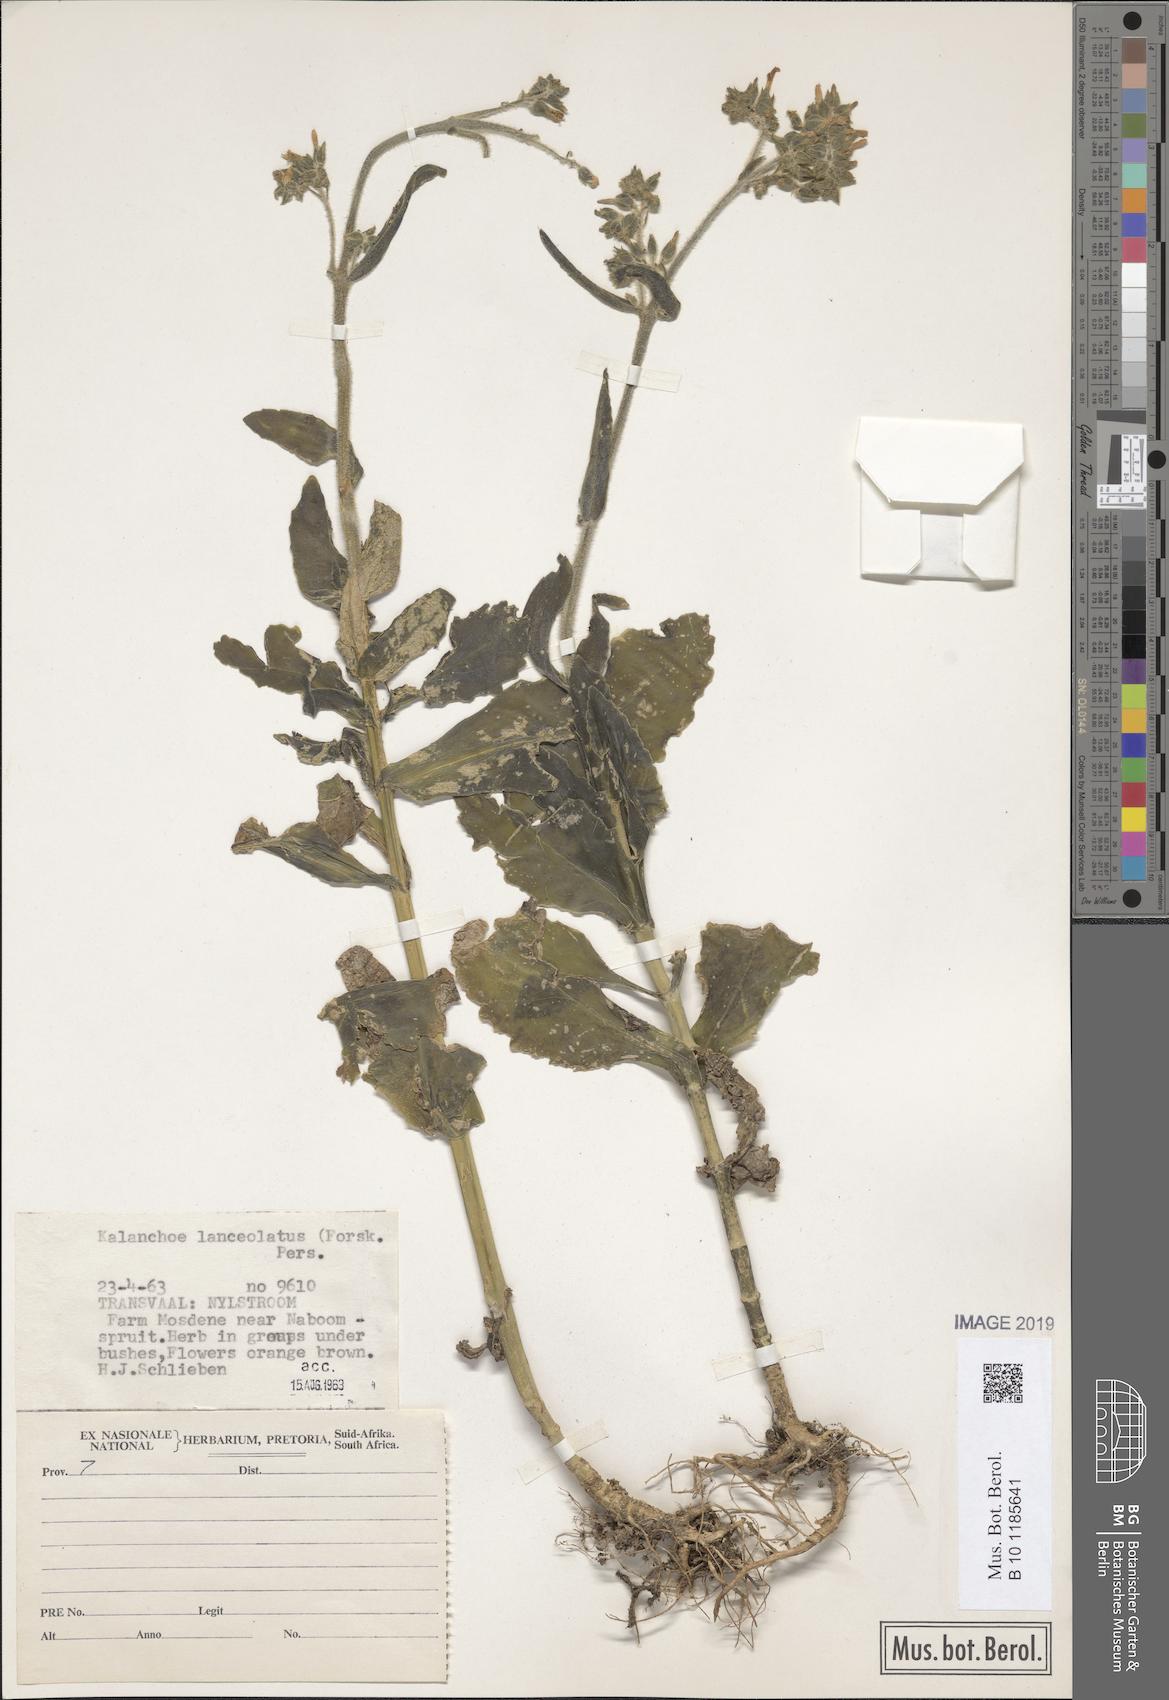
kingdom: Plantae
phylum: Tracheophyta
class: Magnoliopsida
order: Saxifragales
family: Crassulaceae
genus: Kalanchoe
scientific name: Kalanchoe lanceolata
